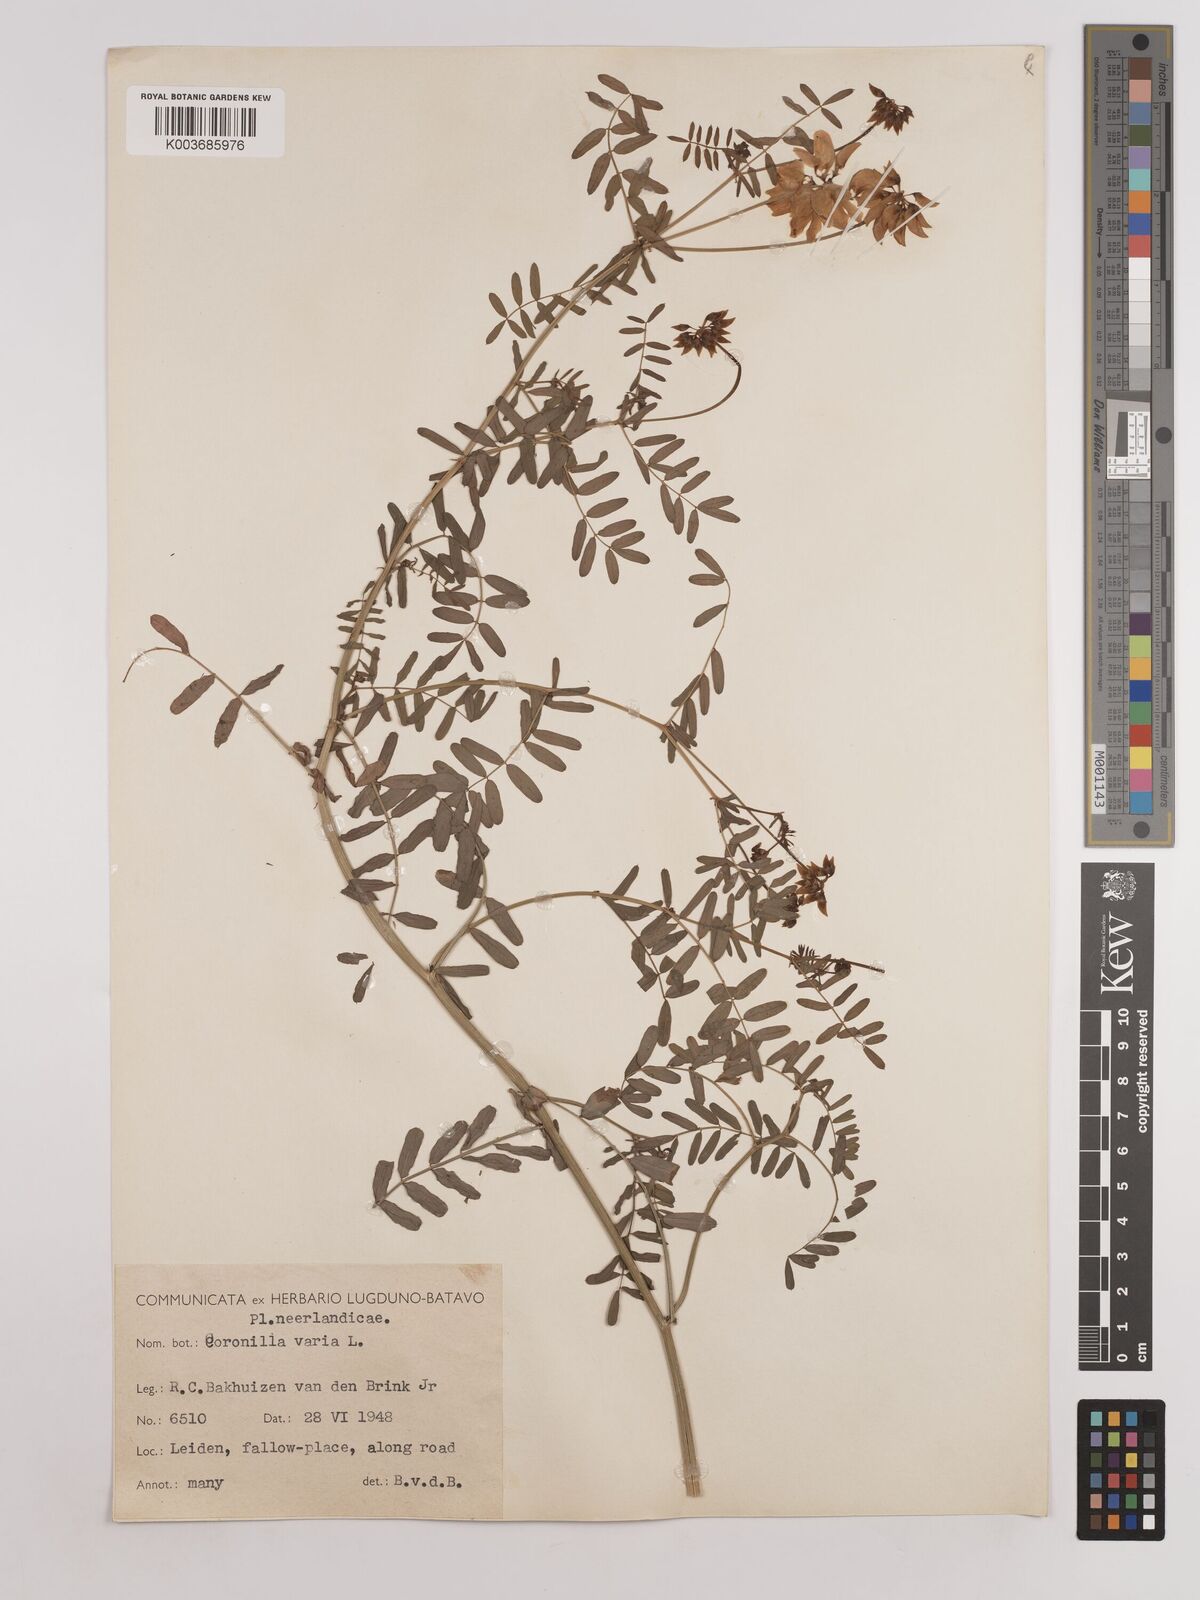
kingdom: Plantae
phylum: Tracheophyta
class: Magnoliopsida
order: Fabales
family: Fabaceae
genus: Coronilla
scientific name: Coronilla varia
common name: Crownvetch
